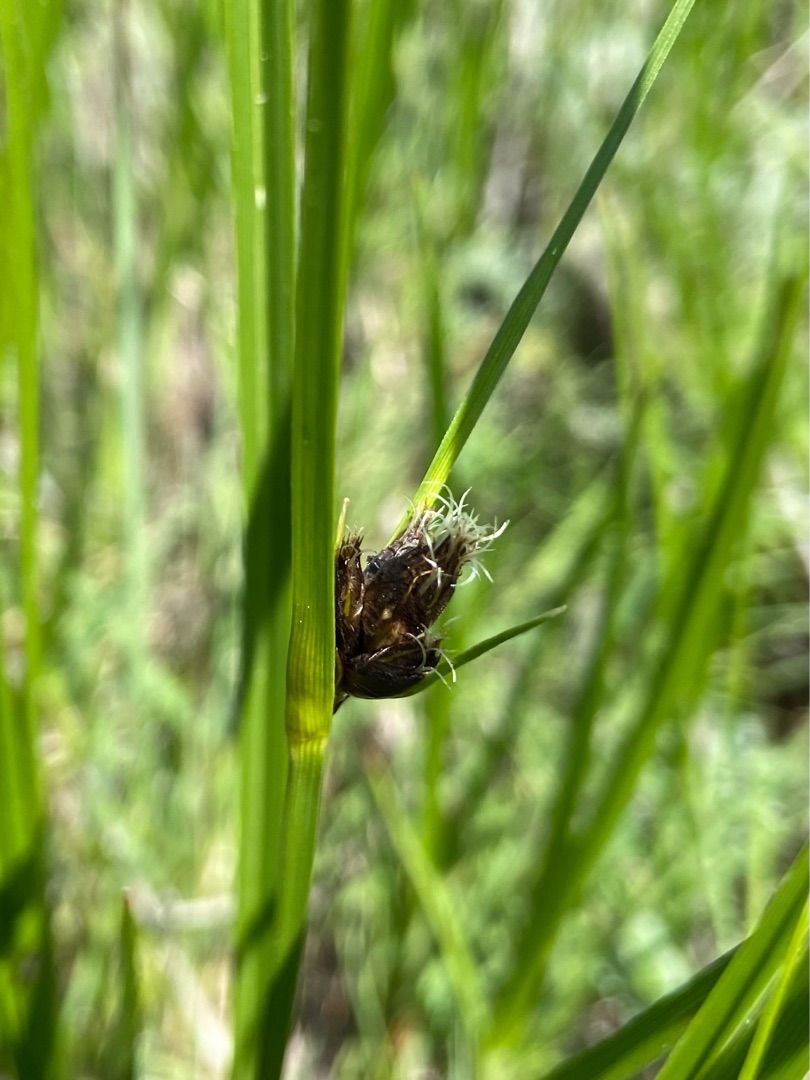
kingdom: Plantae
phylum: Tracheophyta
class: Liliopsida
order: Poales
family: Cyperaceae
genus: Bolboschoenus
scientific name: Bolboschoenus maritimus
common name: Strand-kogleaks
